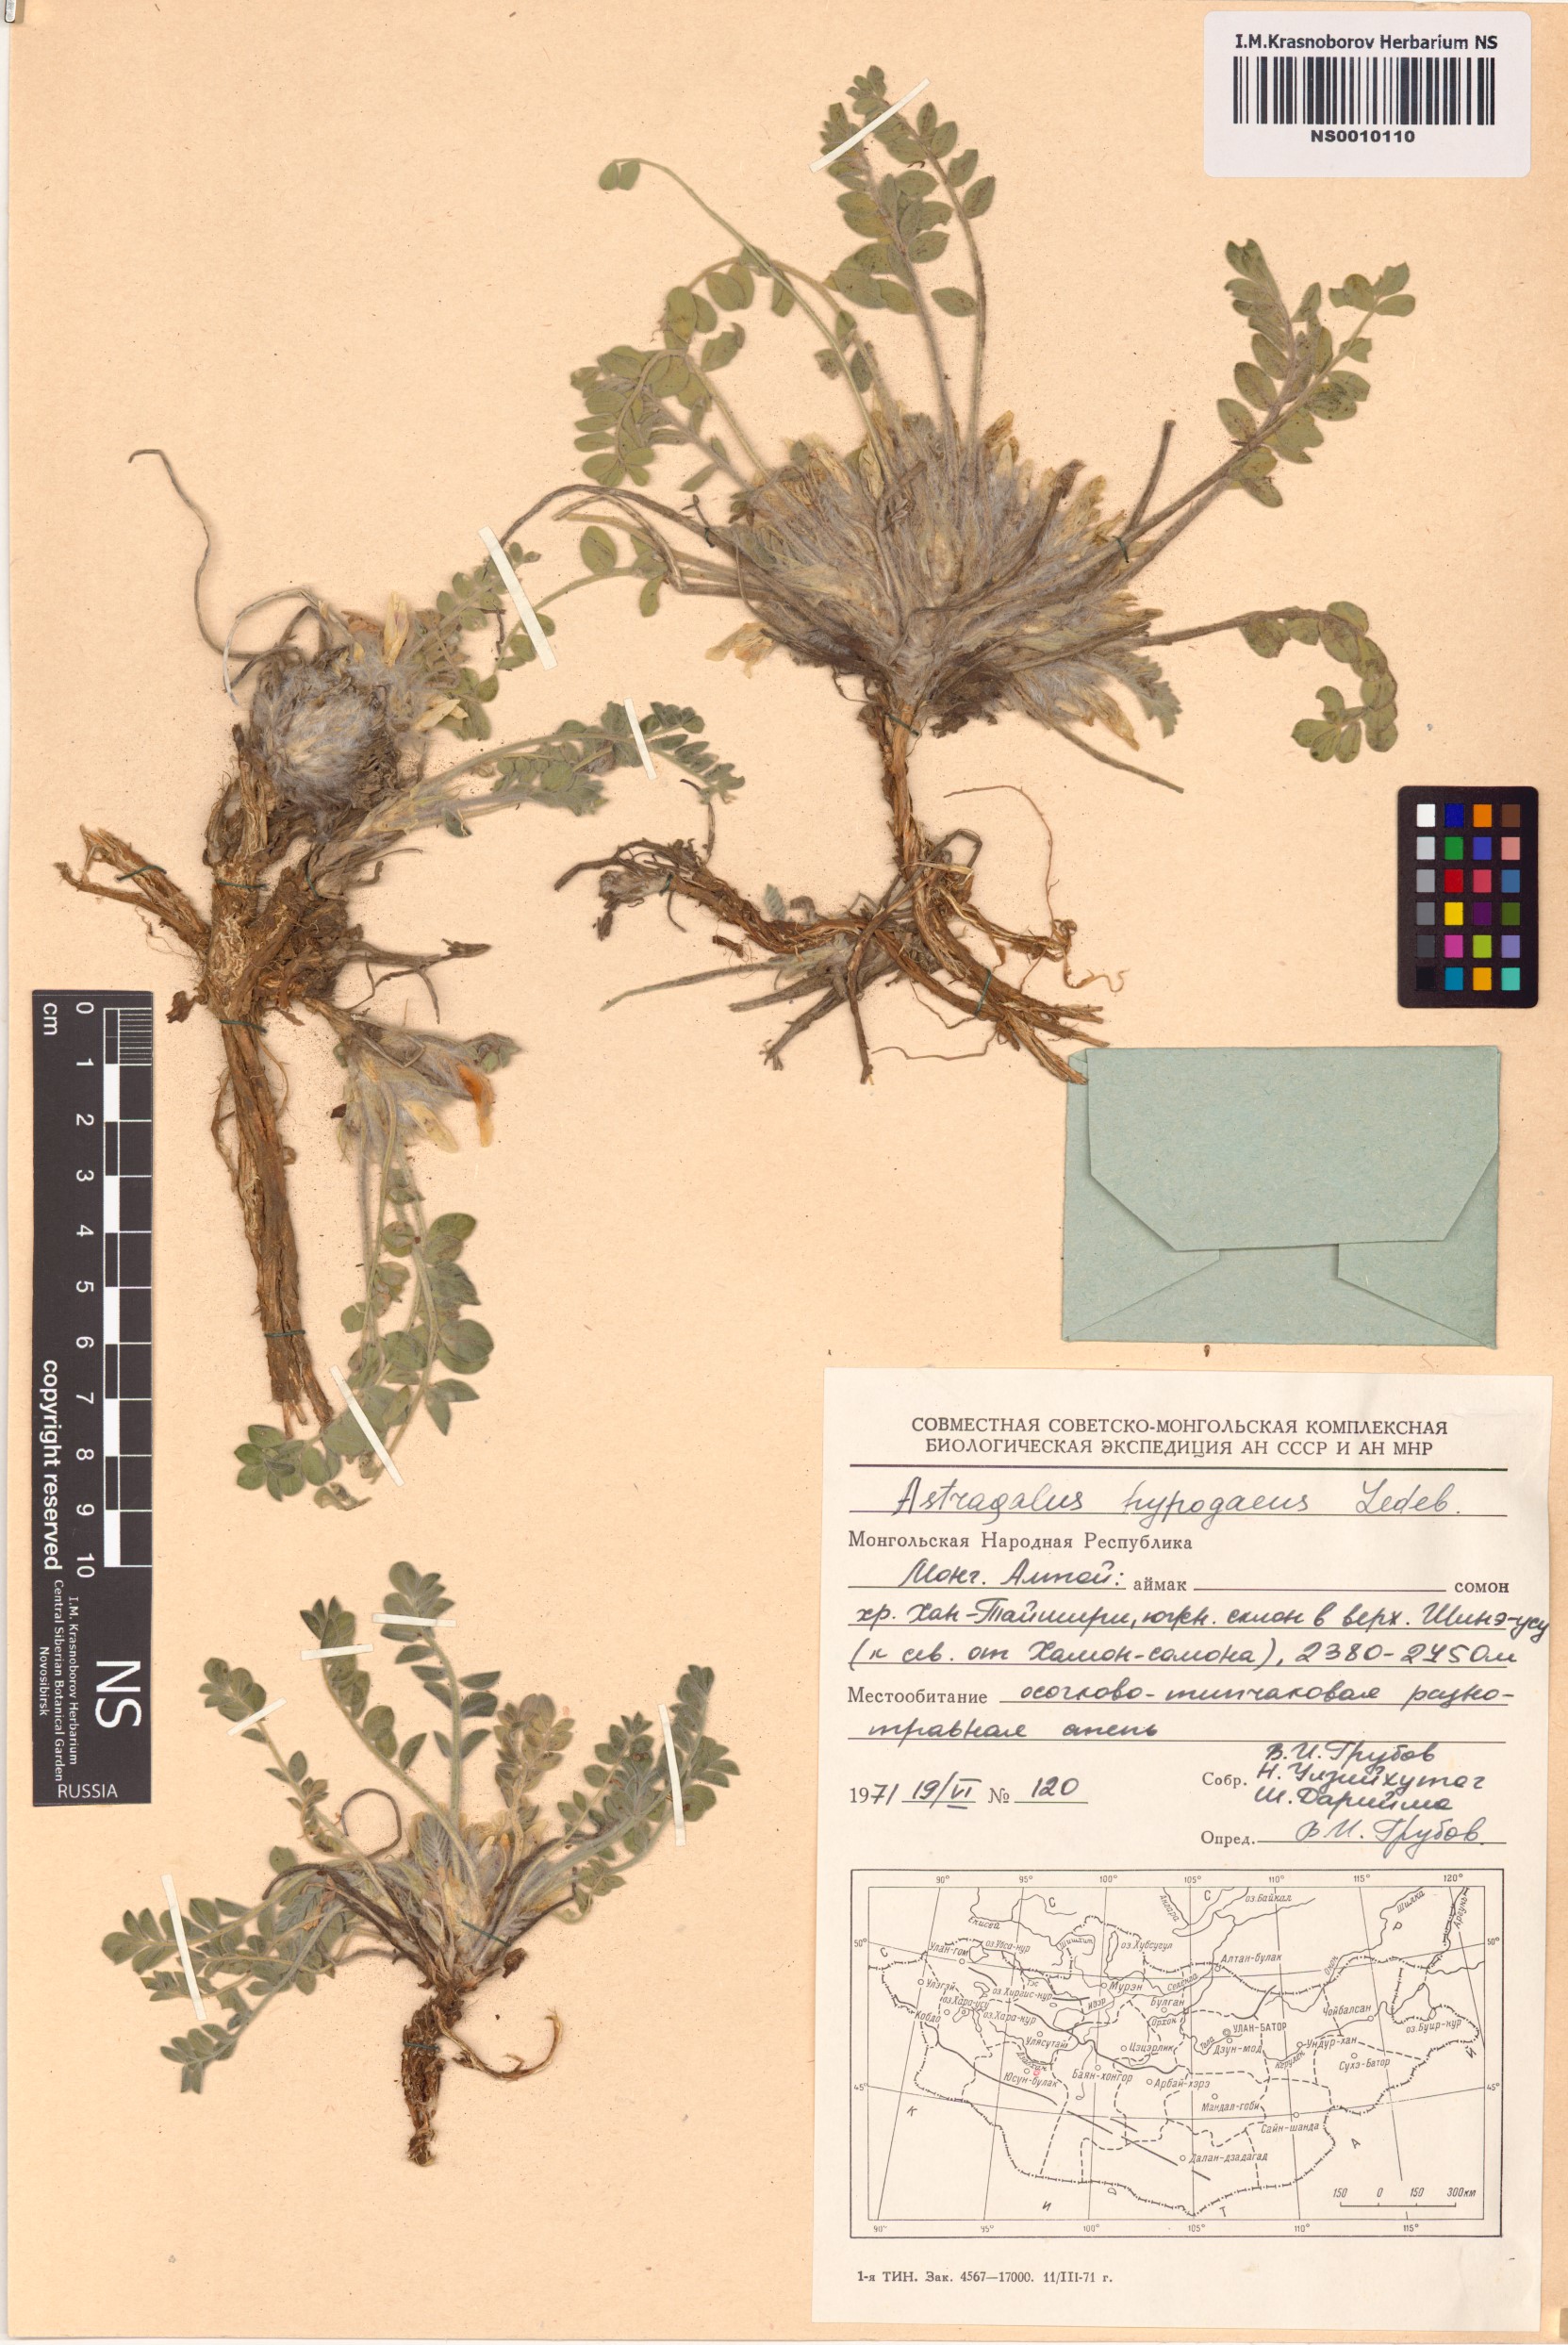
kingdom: Plantae
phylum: Tracheophyta
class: Magnoliopsida
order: Fabales
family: Fabaceae
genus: Astragalus
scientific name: Astragalus hypogaeus
